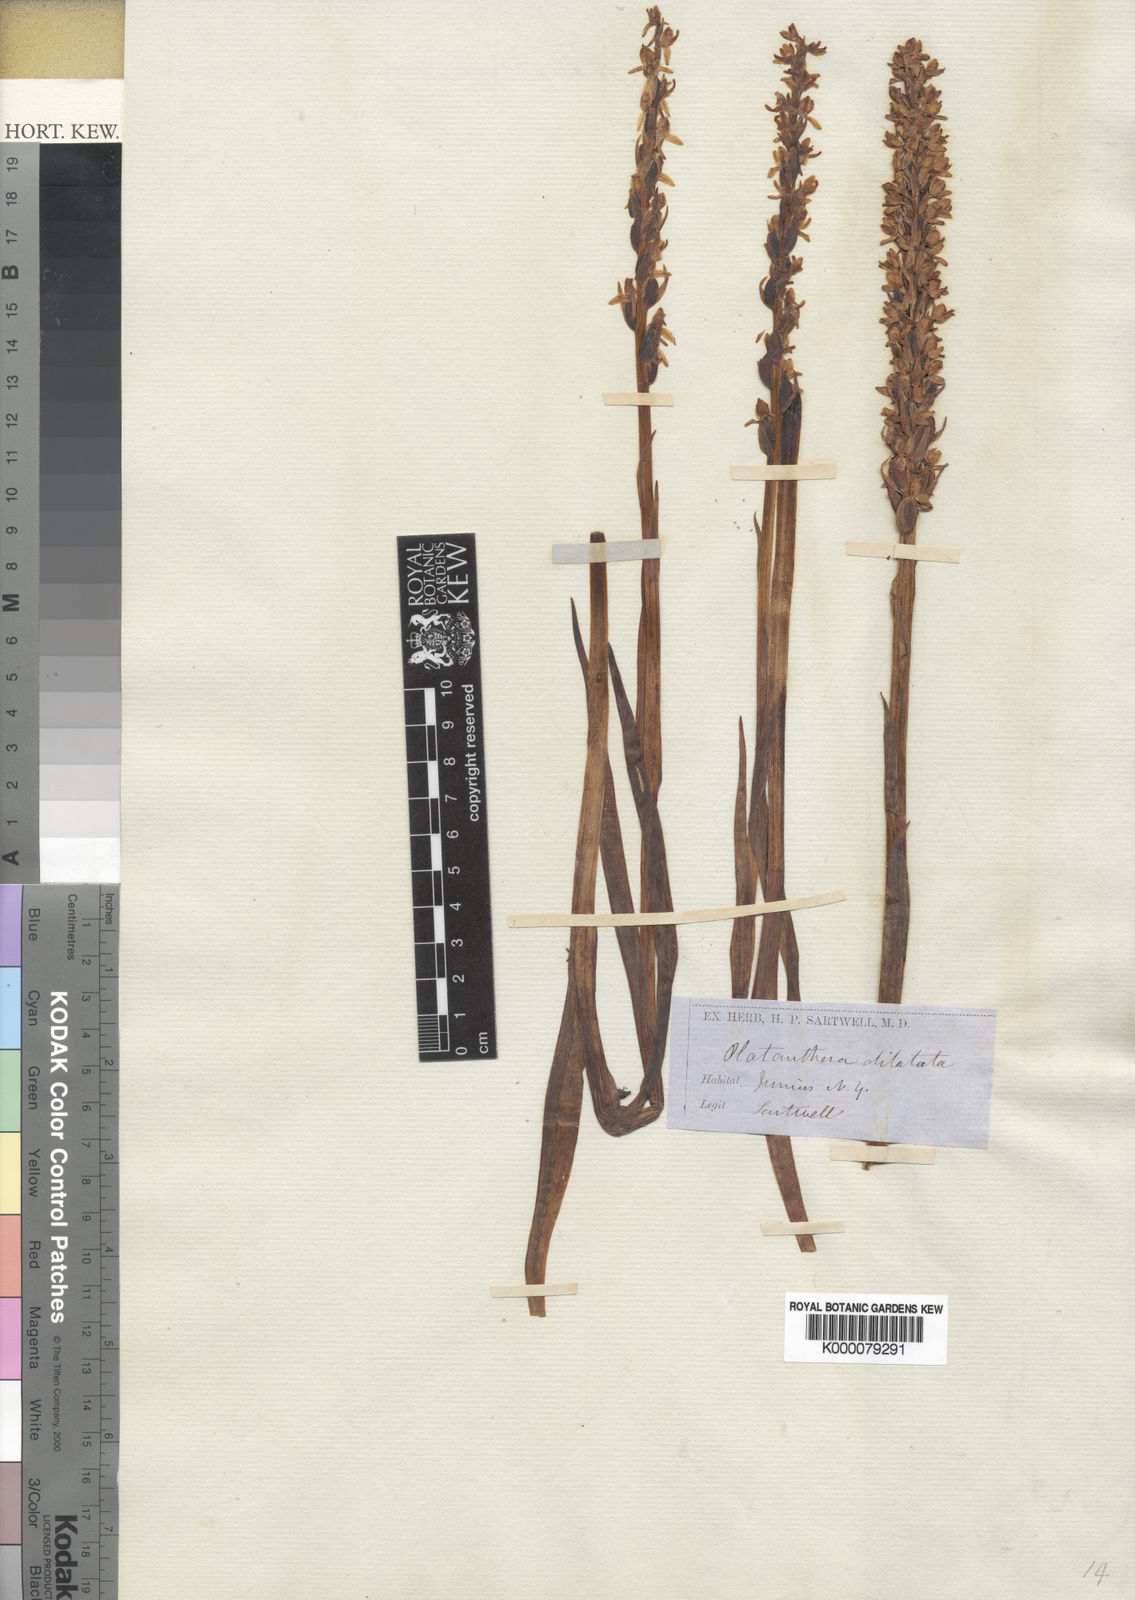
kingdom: Plantae
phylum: Tracheophyta
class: Liliopsida
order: Asparagales
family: Orchidaceae
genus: Platanthera
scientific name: Platanthera dilatata
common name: Bog candles
